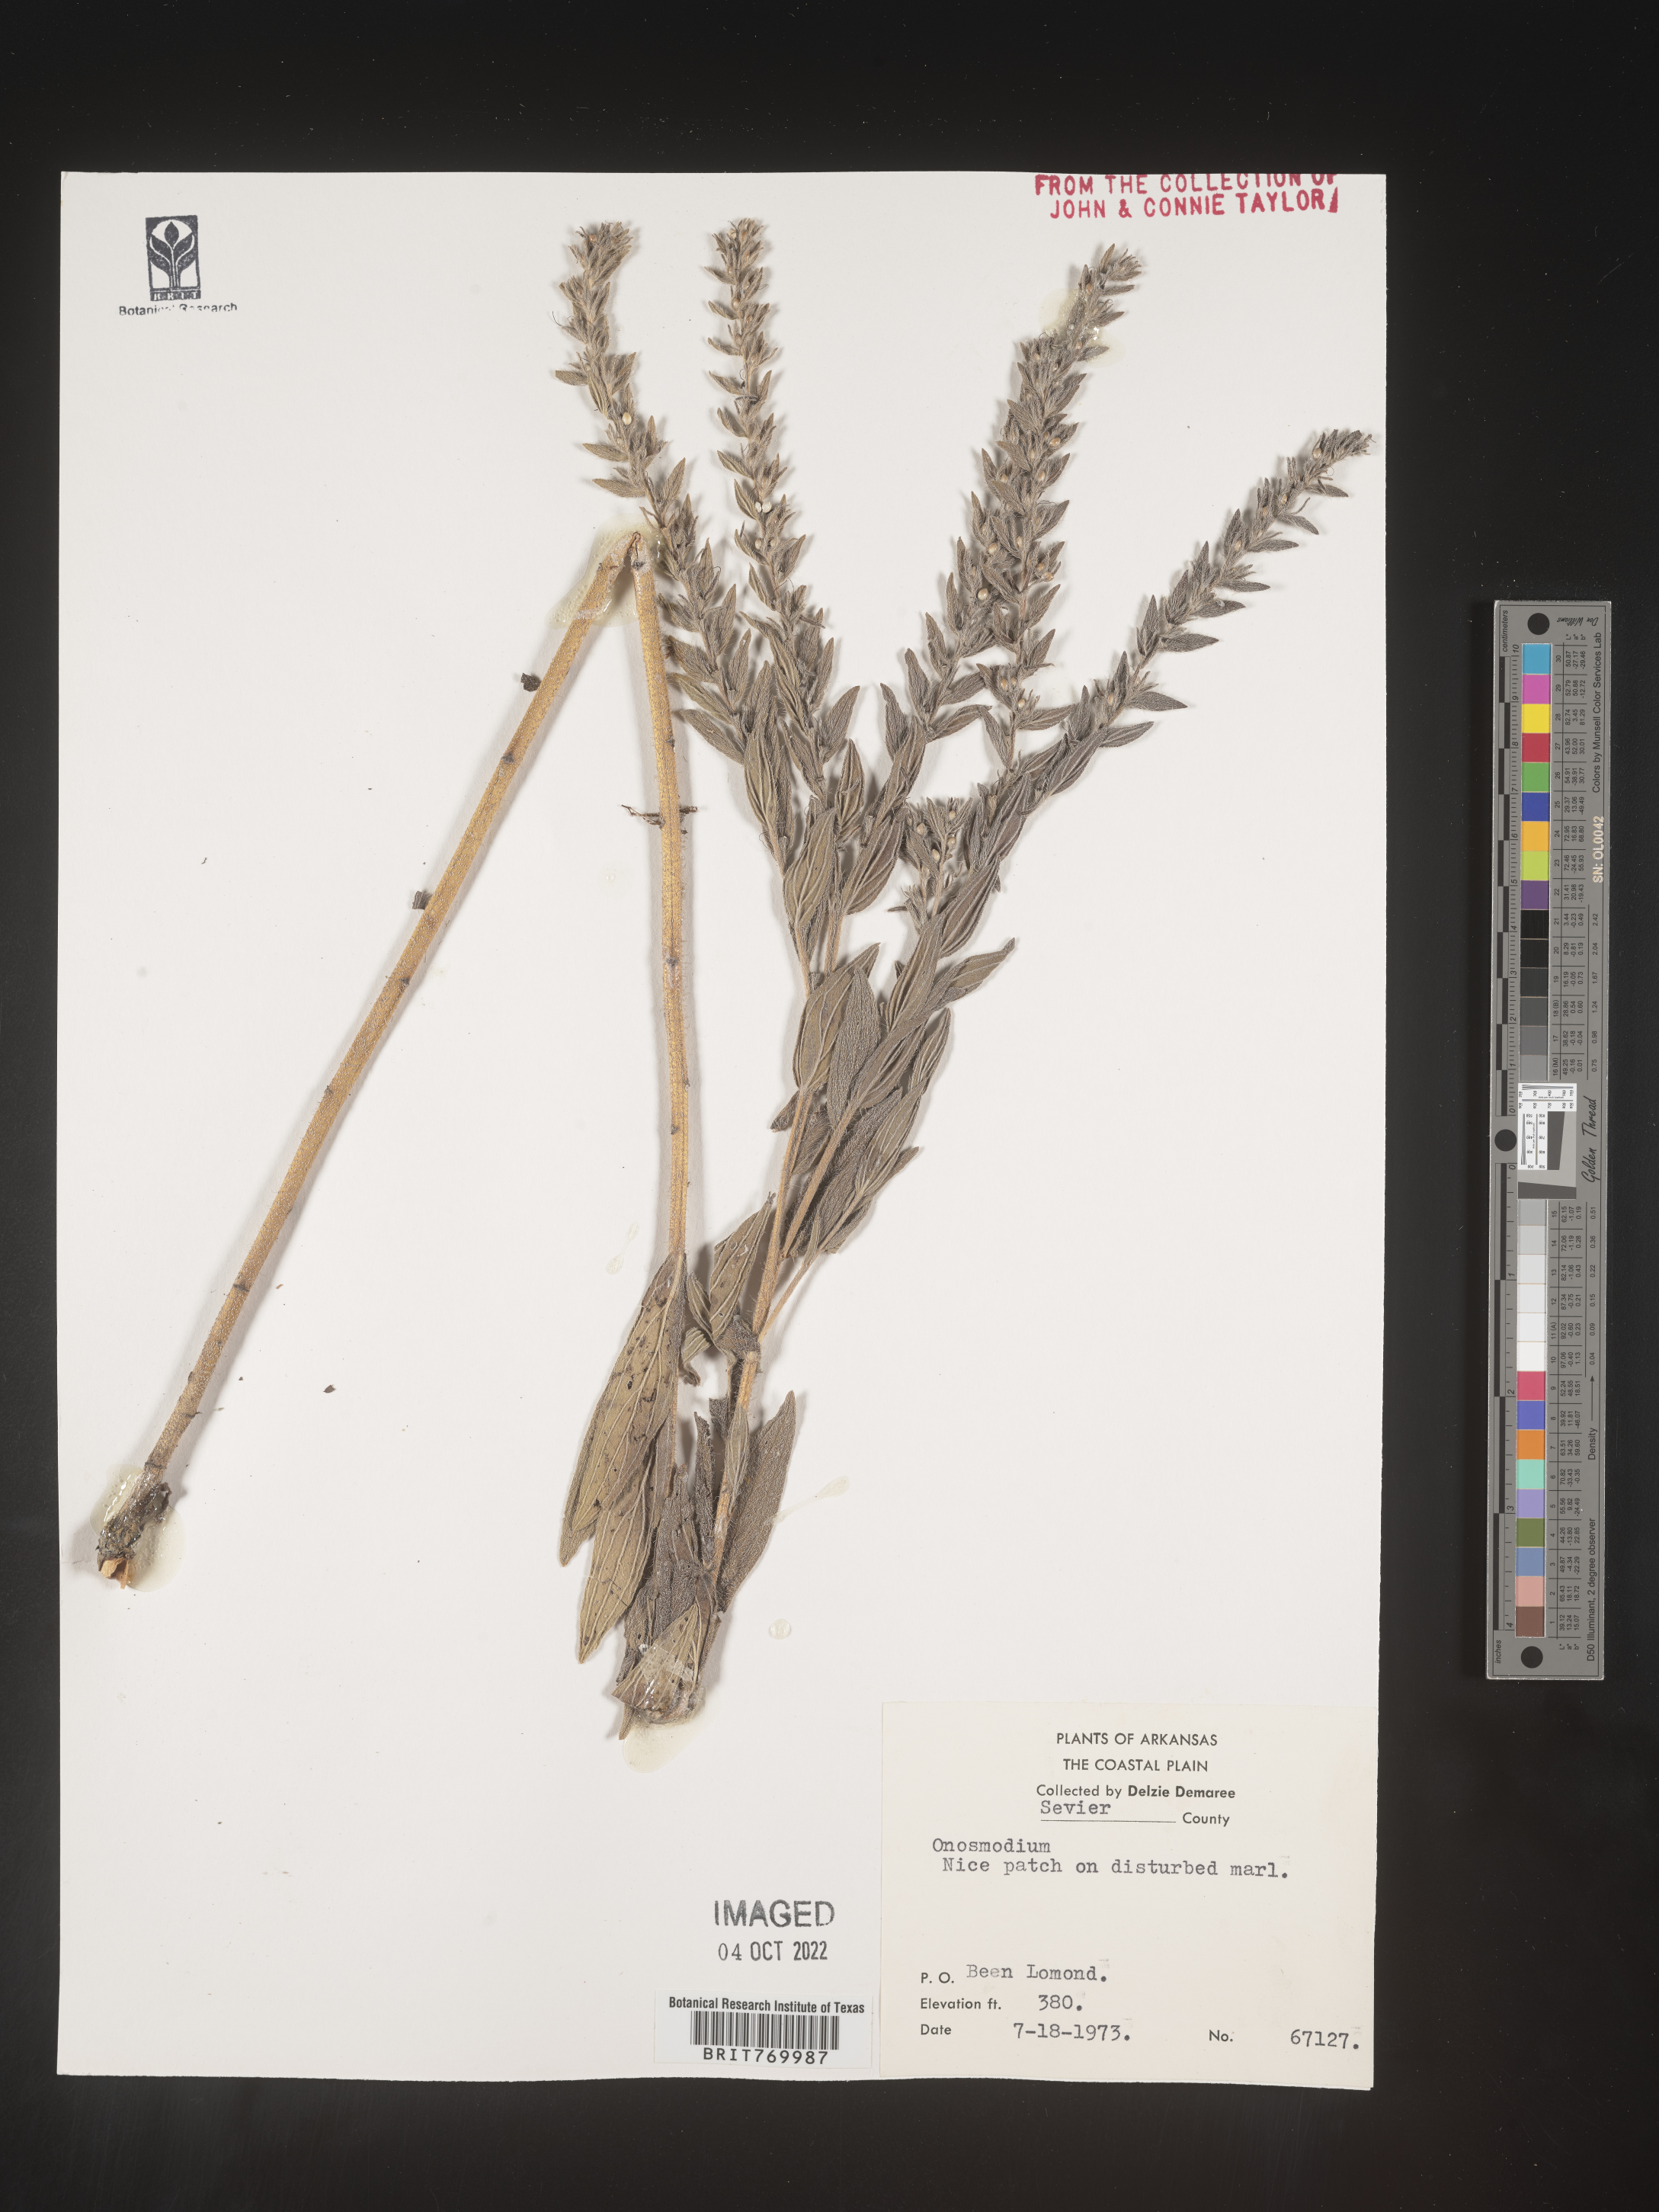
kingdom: Plantae
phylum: Tracheophyta
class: Magnoliopsida
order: Boraginales
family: Boraginaceae
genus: Lithospermum
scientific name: Lithospermum
